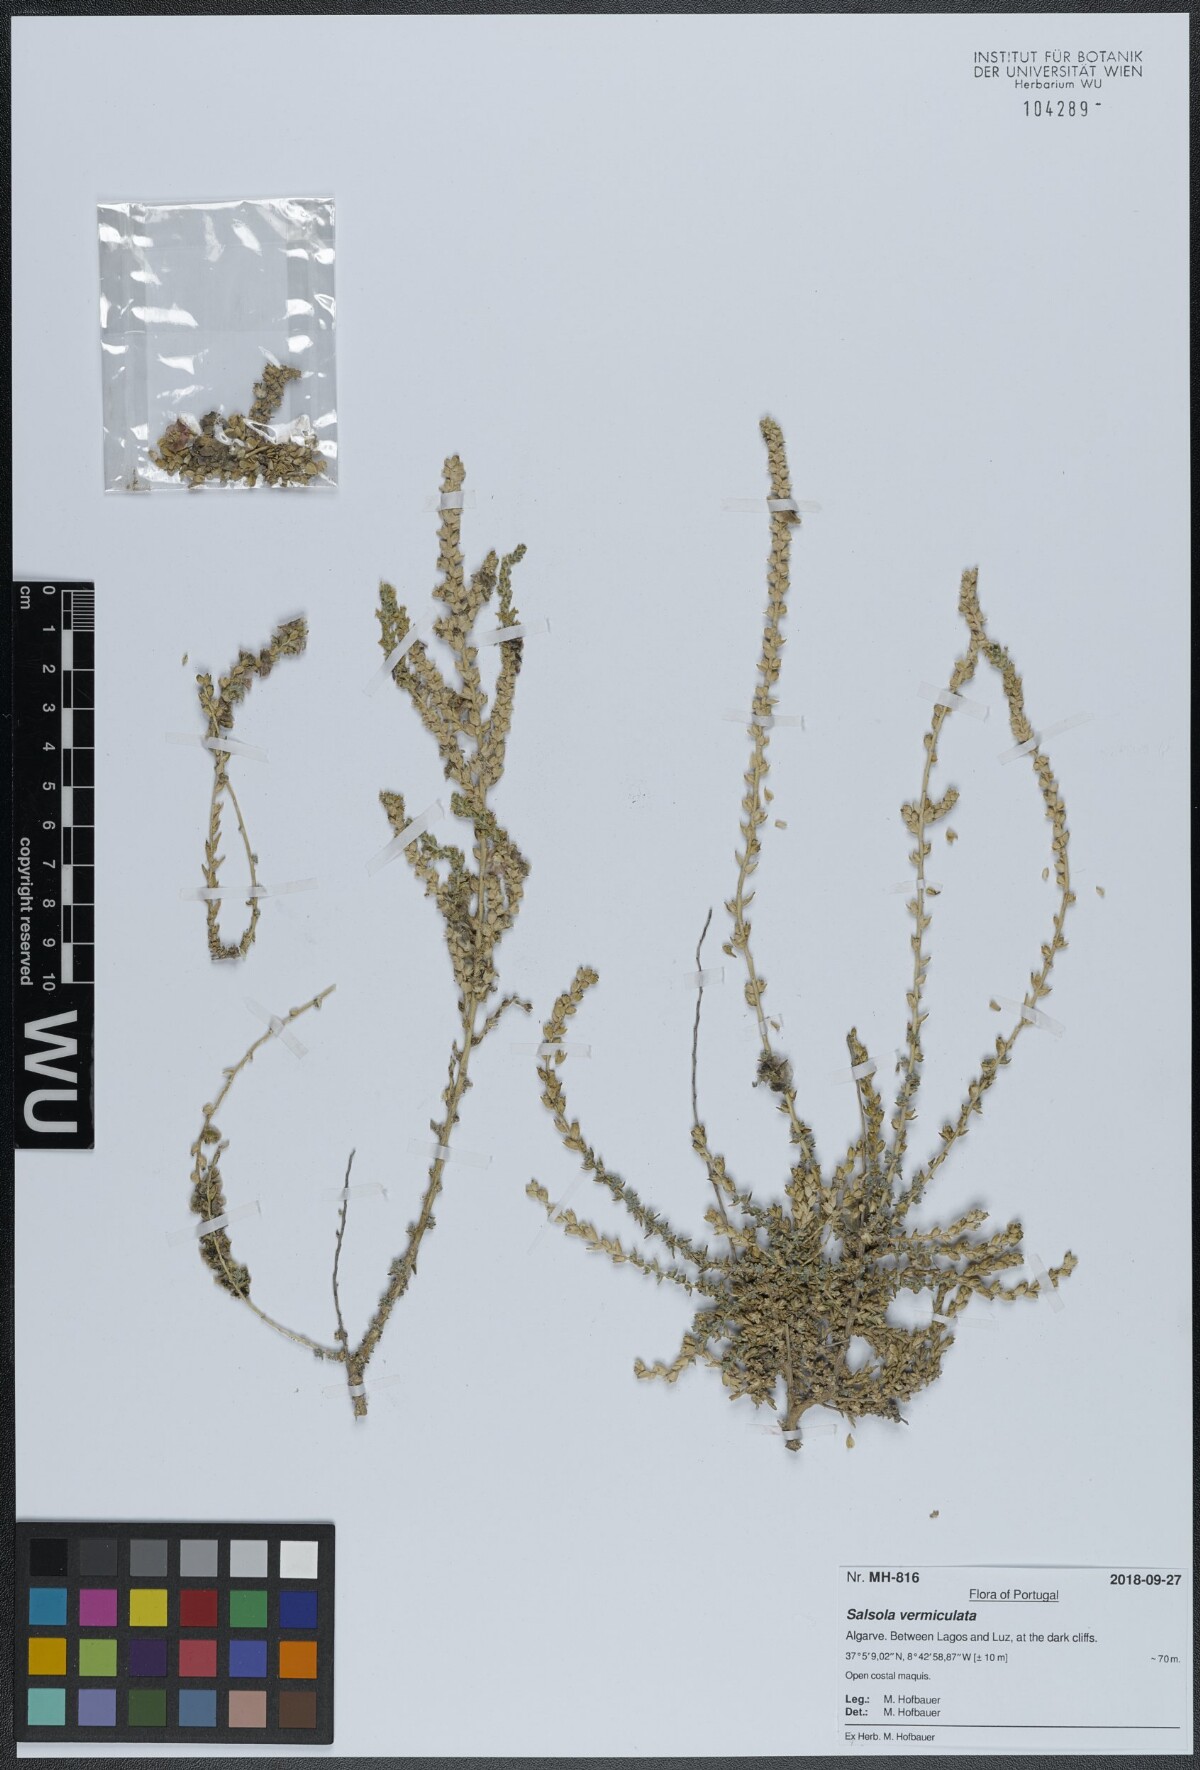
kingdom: Plantae
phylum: Tracheophyta
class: Magnoliopsida
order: Caryophyllales
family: Amaranthaceae
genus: Nitrosalsola
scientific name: Nitrosalsola vermiculata
